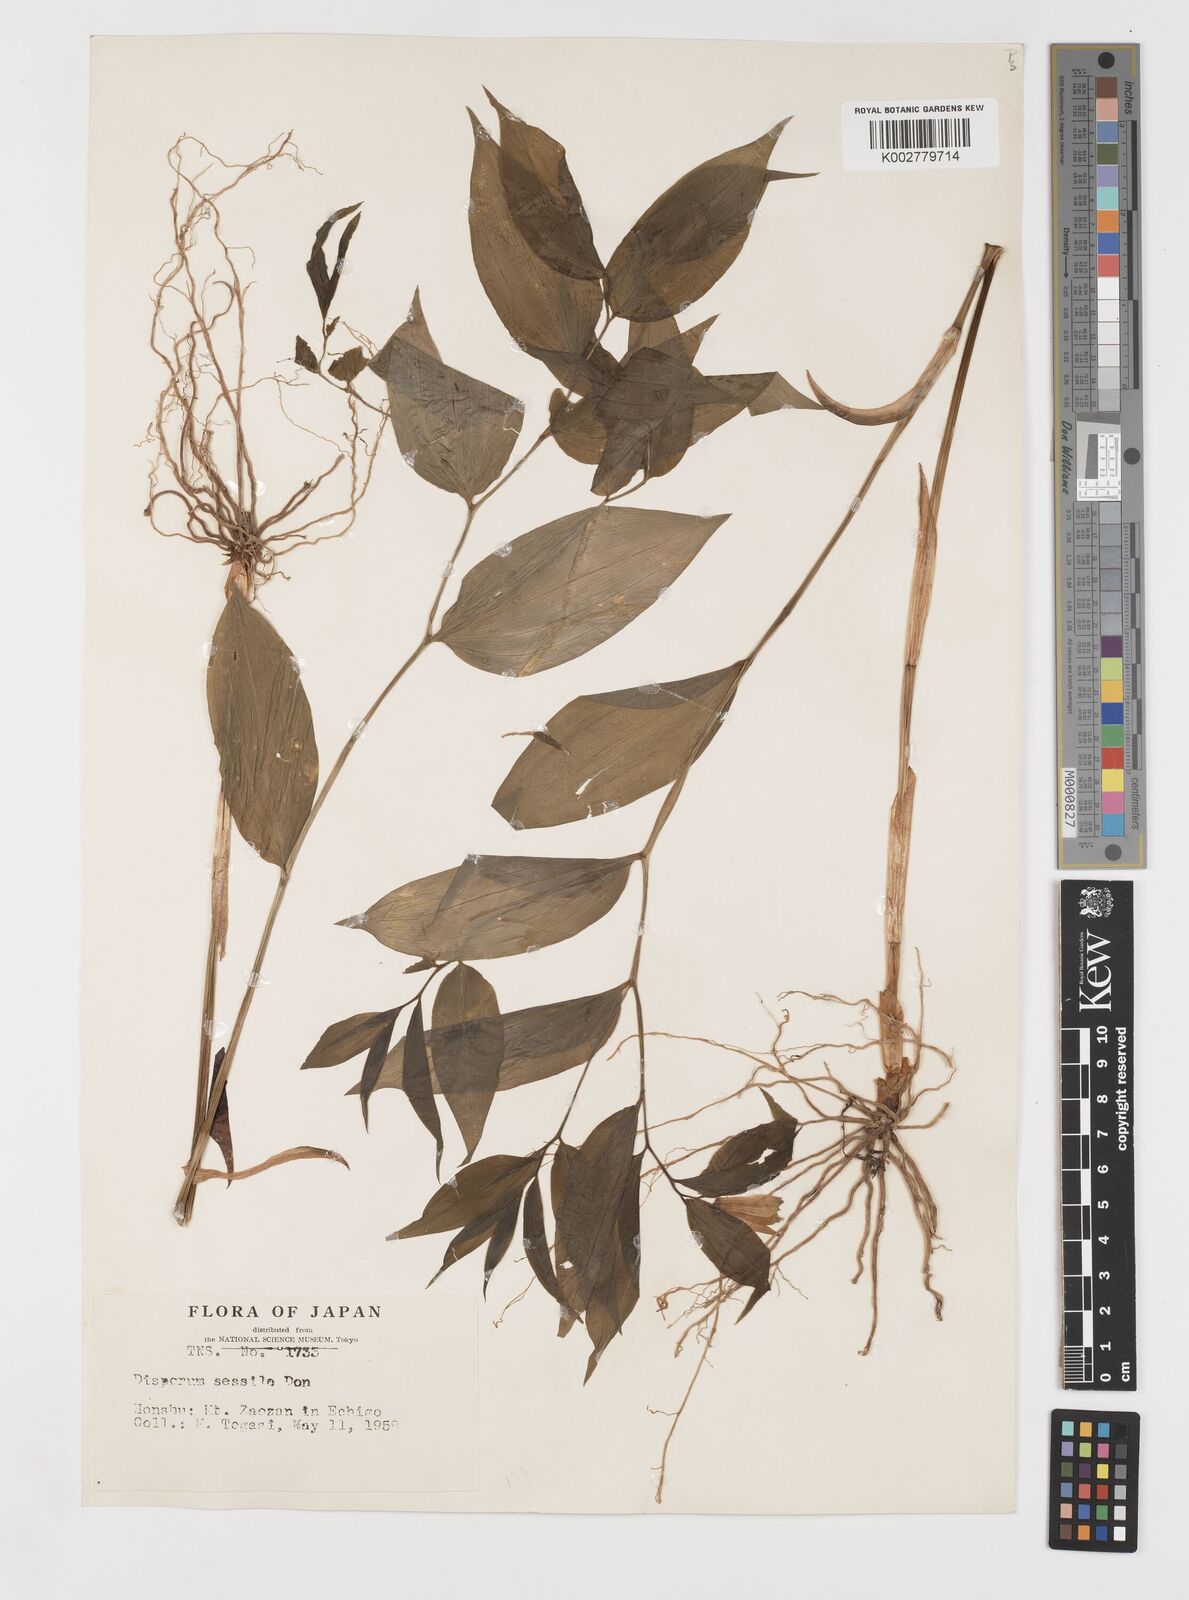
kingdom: Plantae
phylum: Tracheophyta
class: Liliopsida
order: Liliales
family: Colchicaceae
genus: Disporum
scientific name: Disporum sessile
